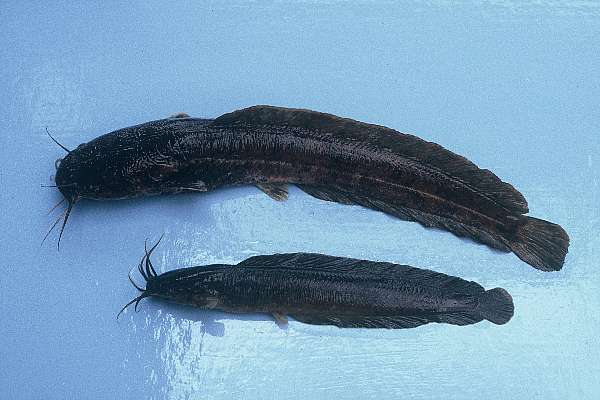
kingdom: Animalia
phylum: Chordata
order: Siluriformes
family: Clariidae
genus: Clarias
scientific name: Clarias stappersii
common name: Blotched catfish
